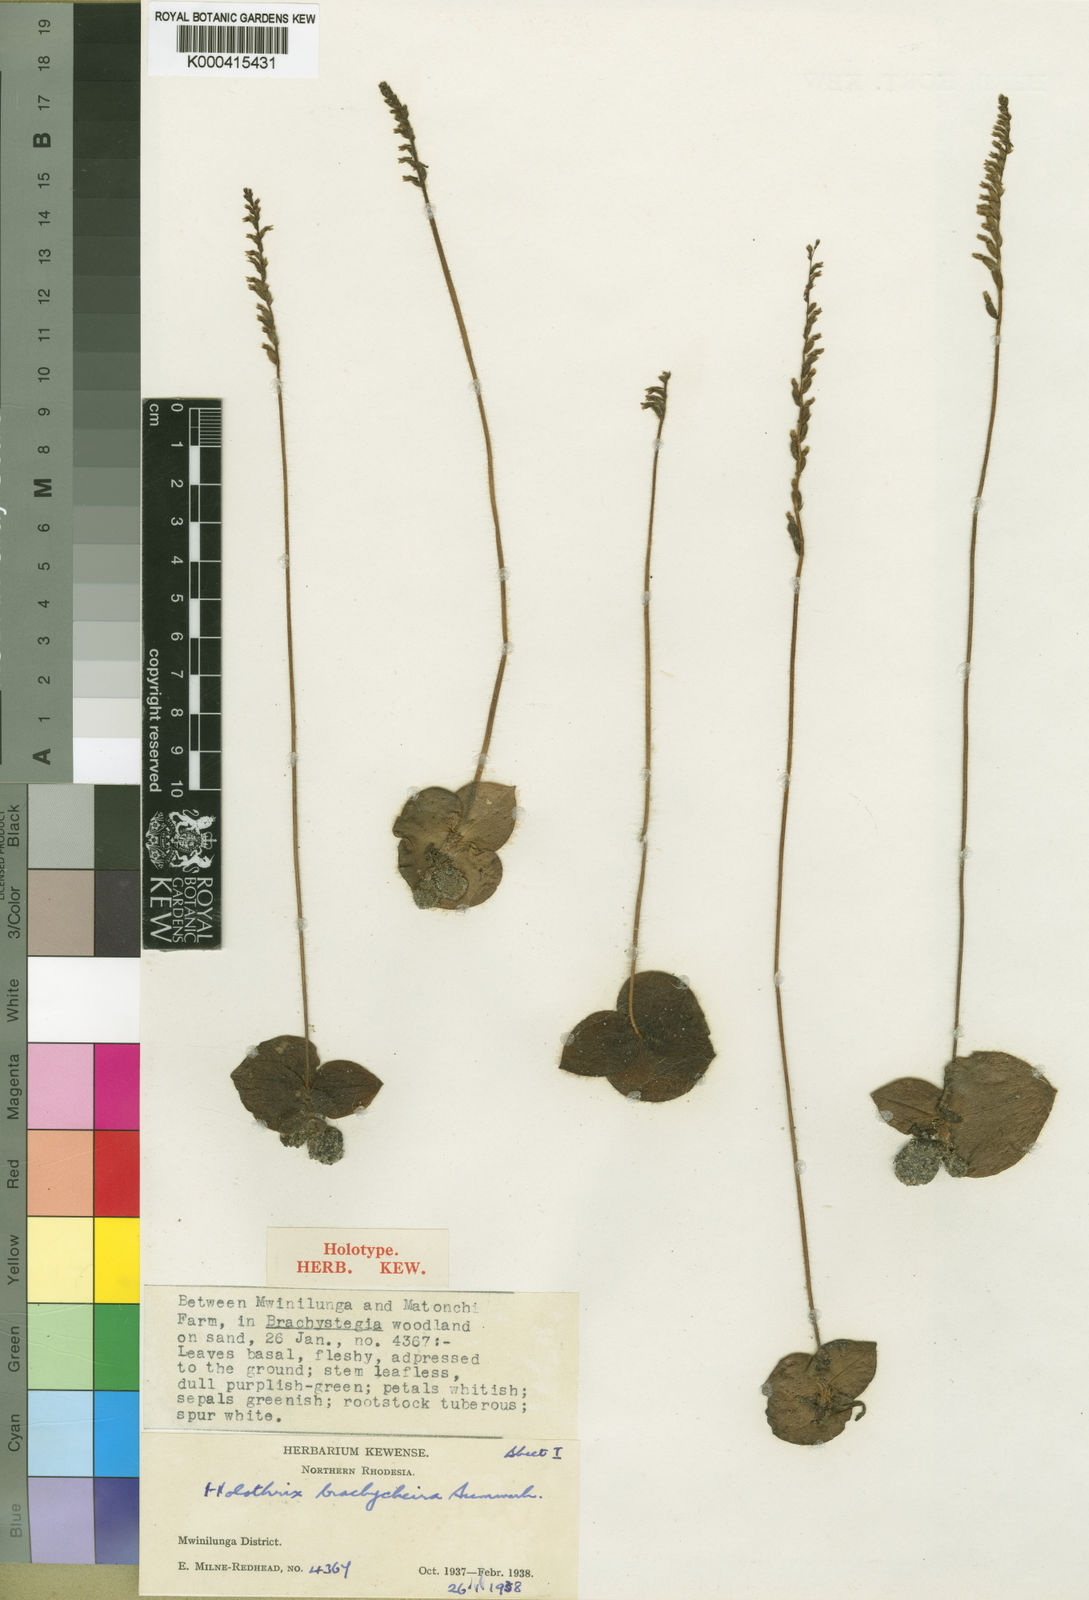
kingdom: Plantae
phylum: Tracheophyta
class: Liliopsida
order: Asparagales
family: Orchidaceae
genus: Holothrix
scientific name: Holothrix papillosa
